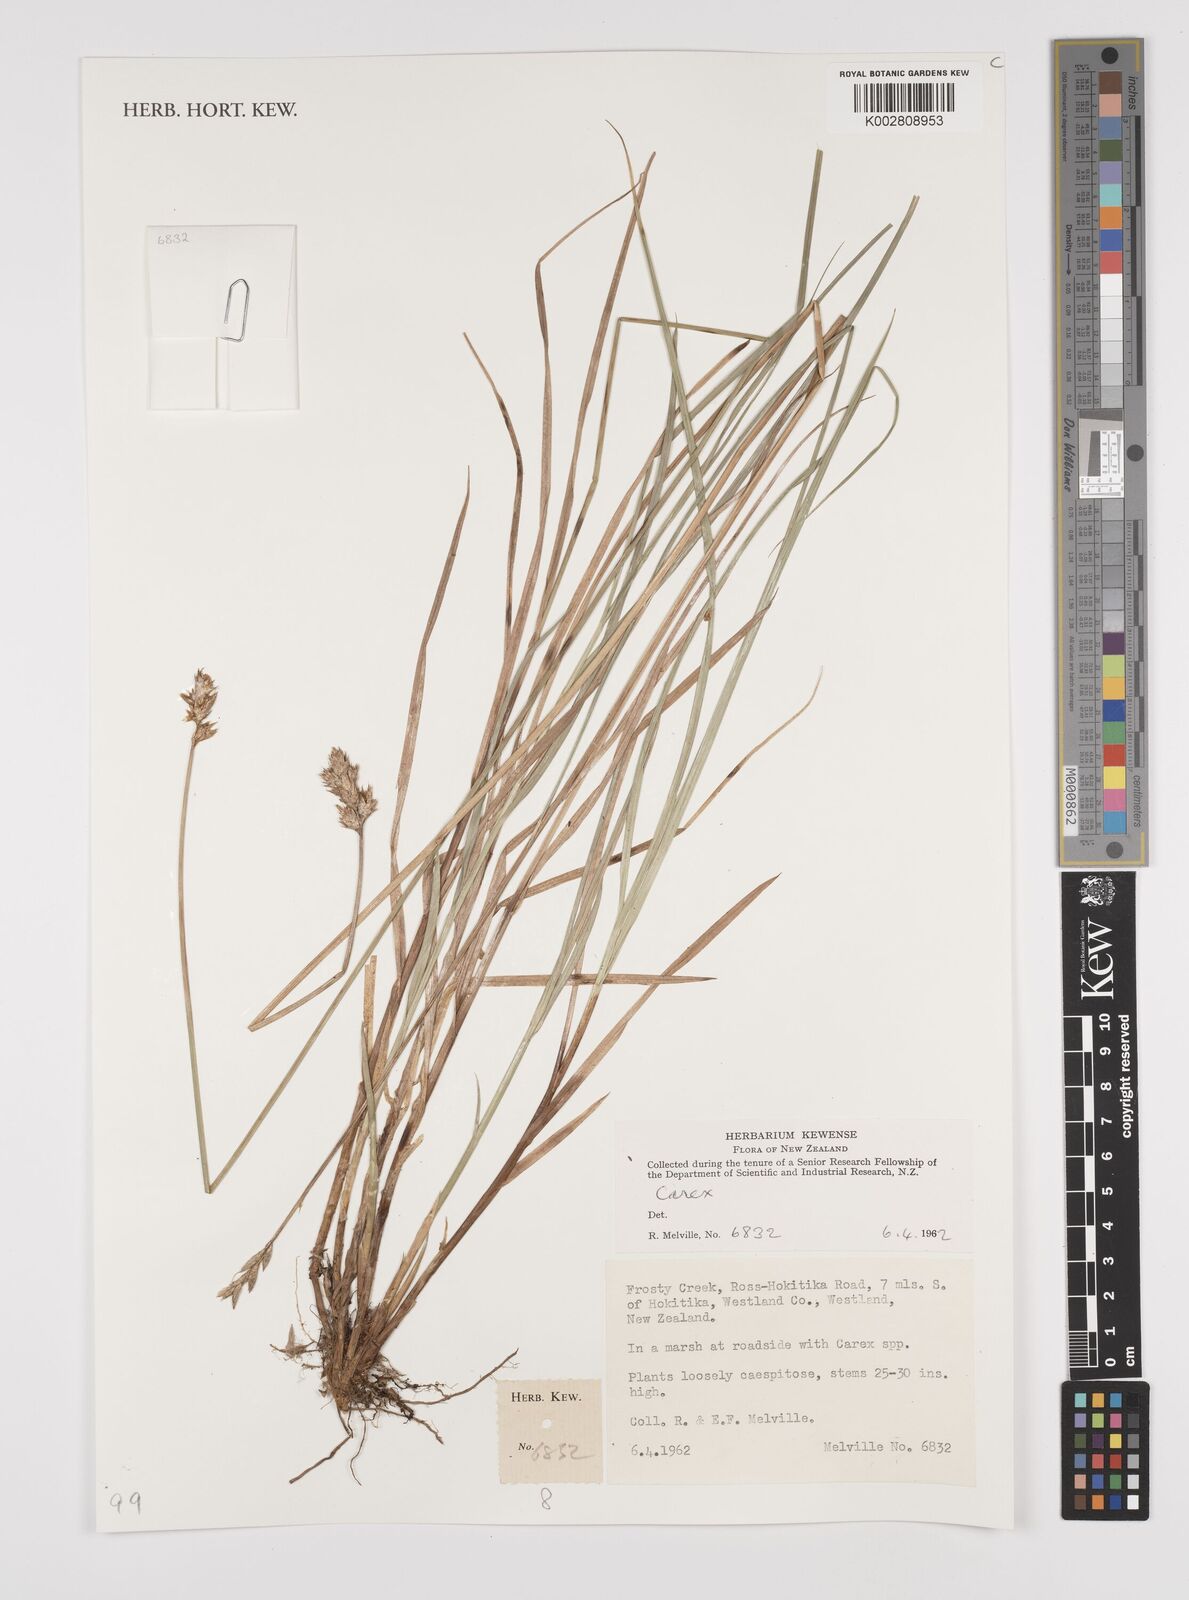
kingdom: Plantae
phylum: Tracheophyta
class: Liliopsida
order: Poales
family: Cyperaceae
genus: Carex
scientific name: Carex
